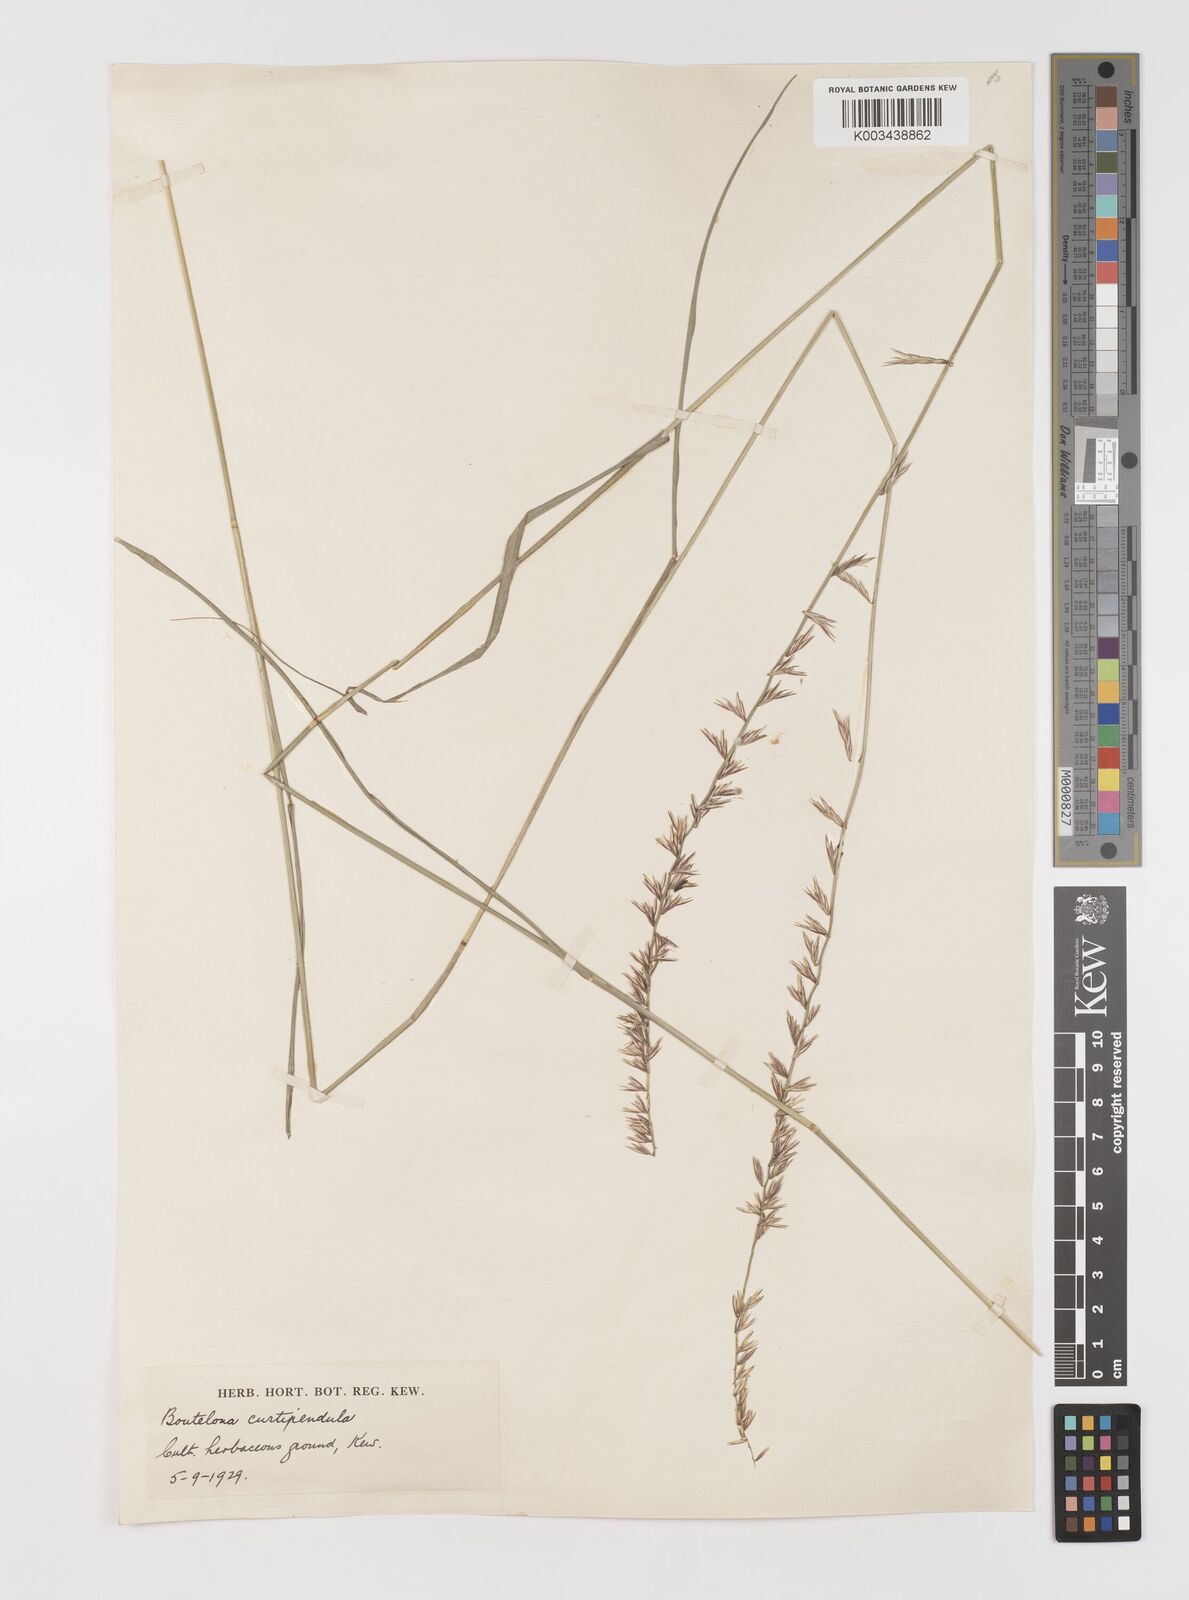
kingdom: Plantae
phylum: Tracheophyta
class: Liliopsida
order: Poales
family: Poaceae
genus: Bouteloua
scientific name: Bouteloua curtipendula
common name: Side-oats grama
